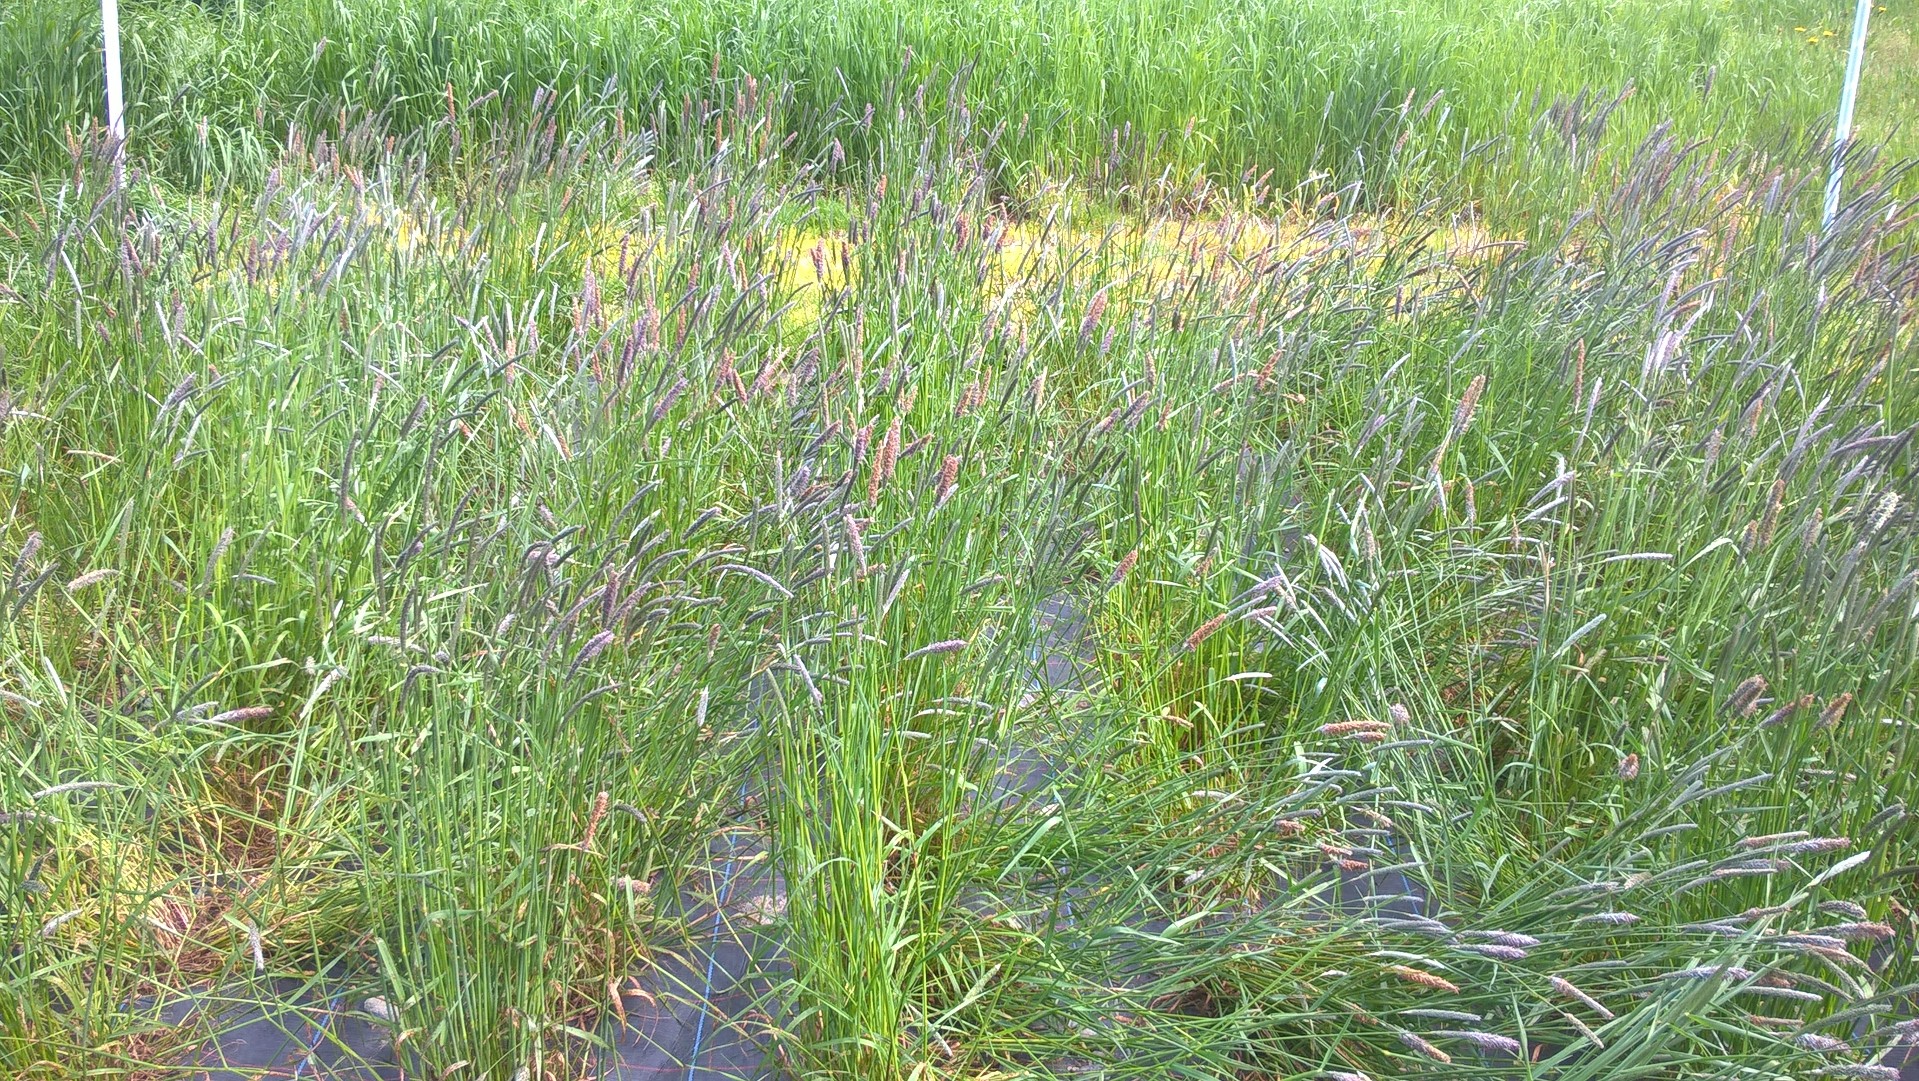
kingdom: Plantae
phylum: Tracheophyta
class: Liliopsida
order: Poales
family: Poaceae
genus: Alopecurus
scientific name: Alopecurus pratensis
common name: Meadow foxtail
